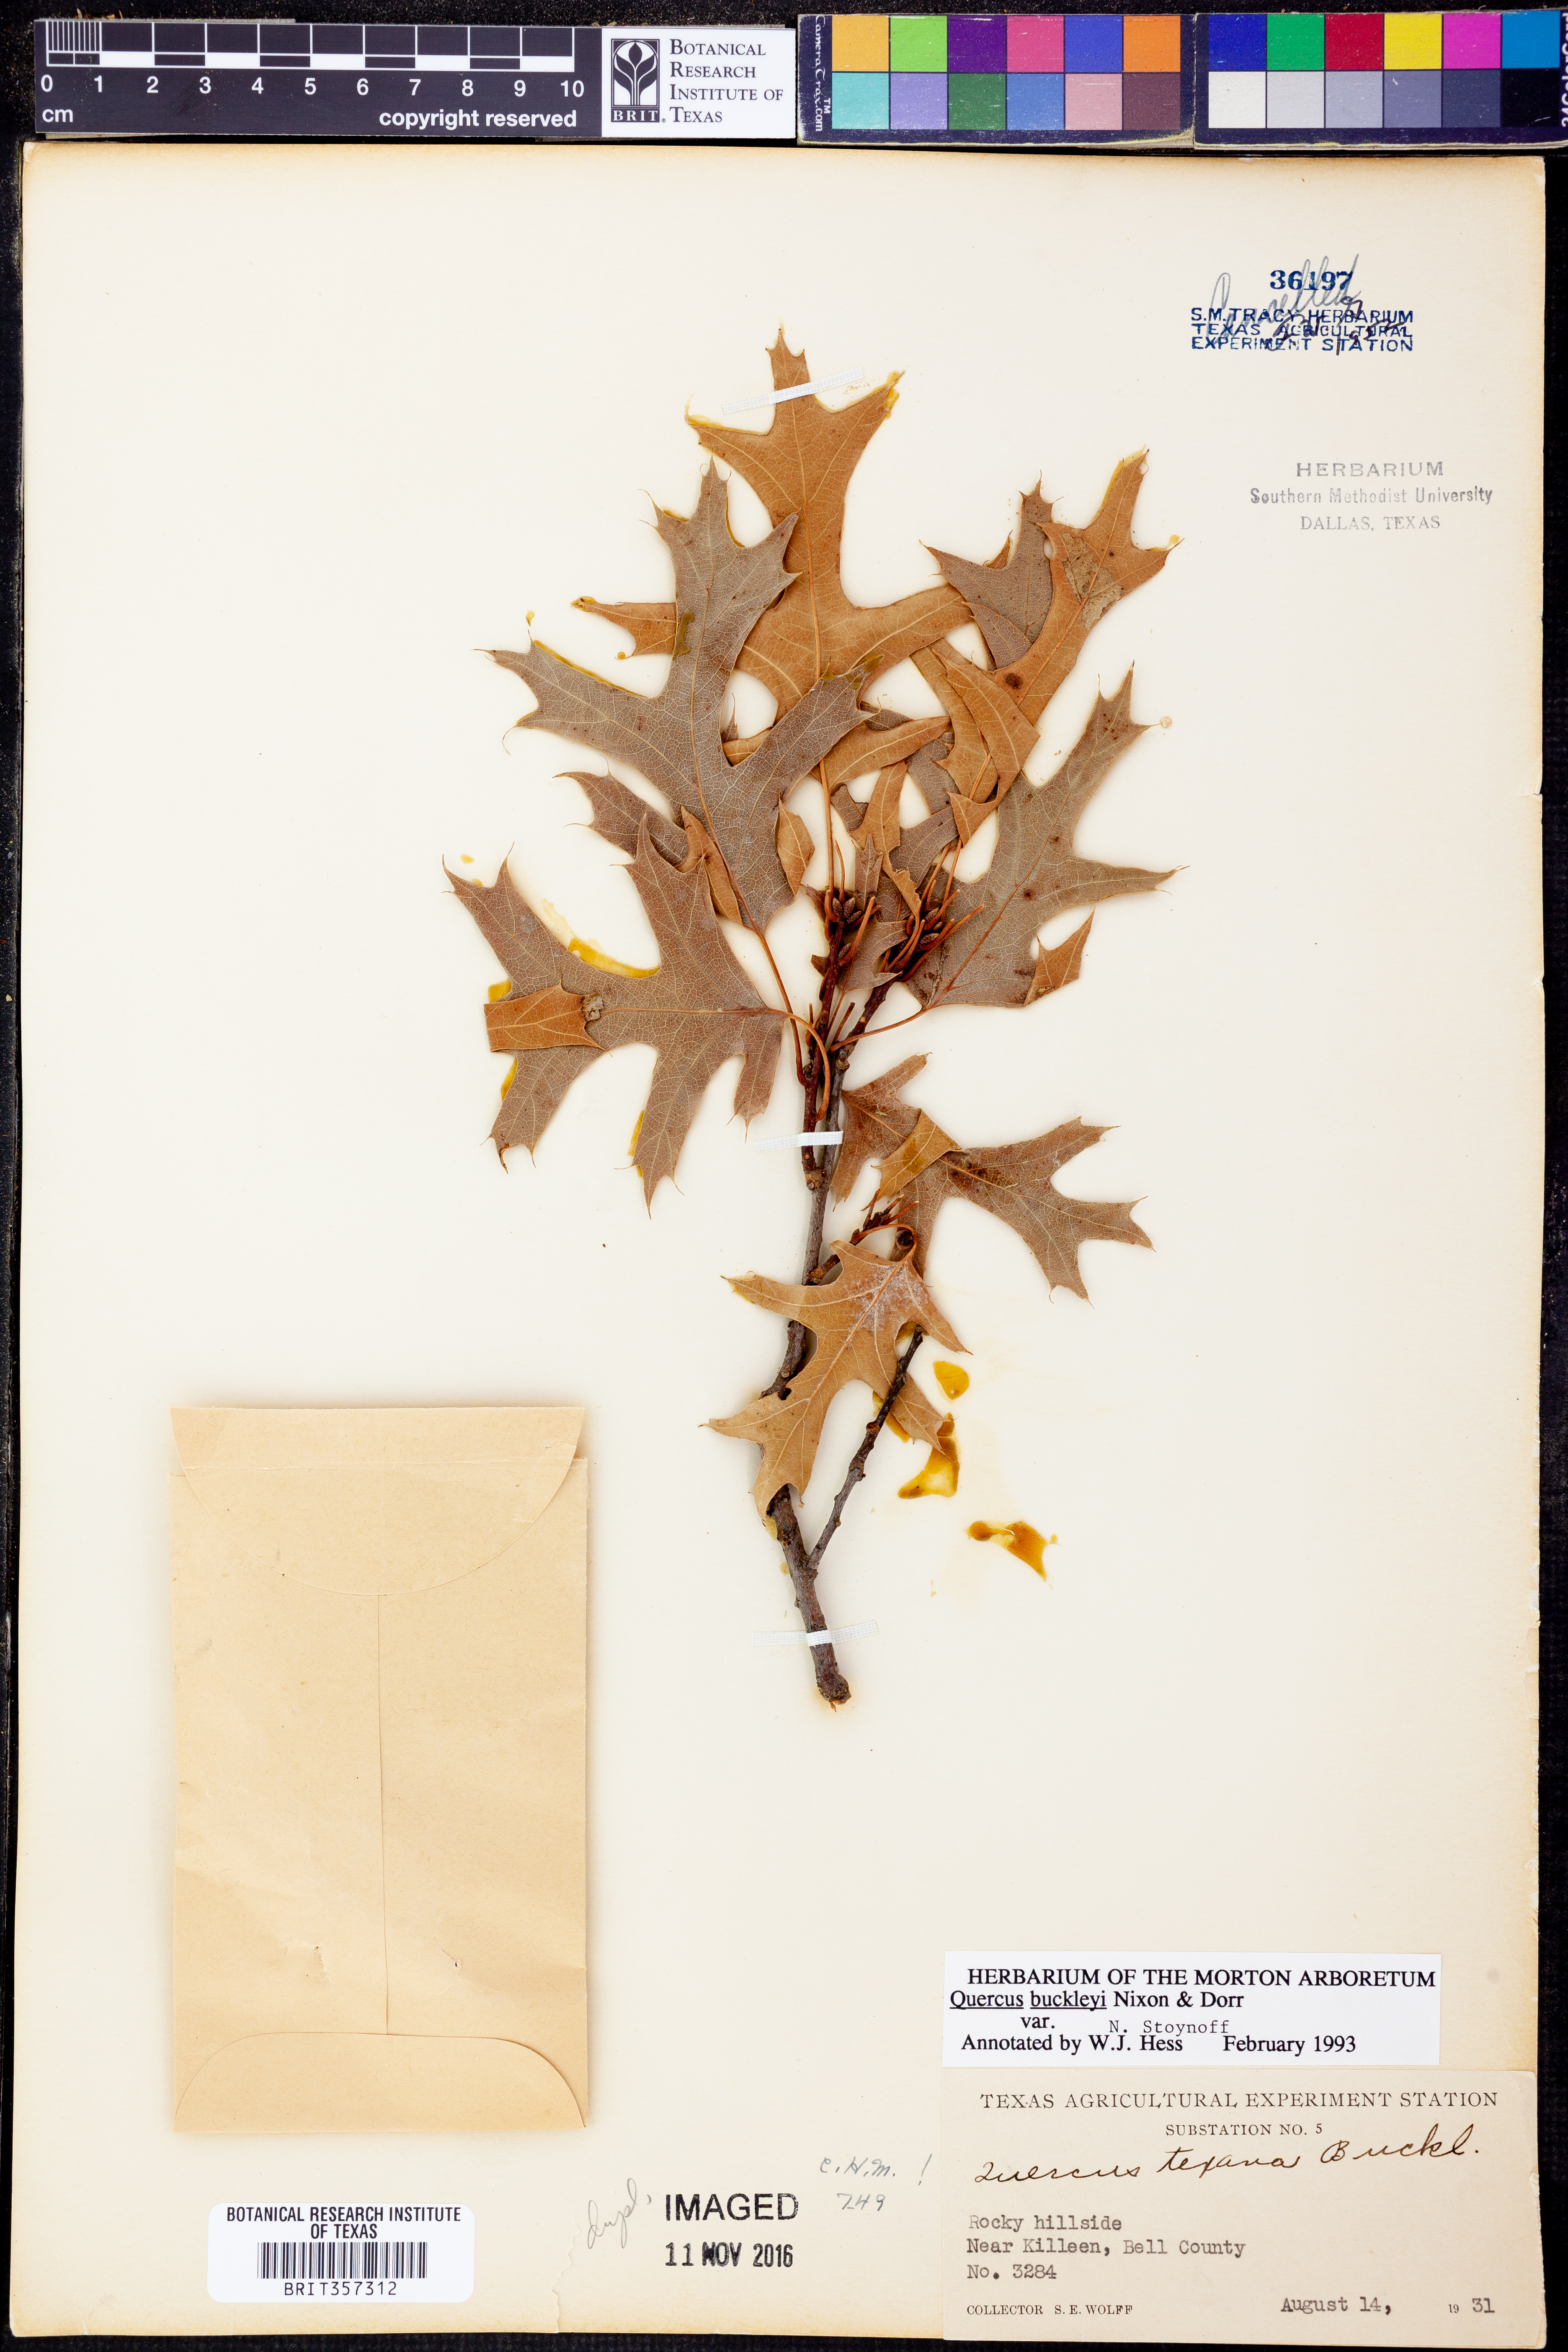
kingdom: Plantae
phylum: Tracheophyta
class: Magnoliopsida
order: Fagales
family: Fagaceae
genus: Quercus
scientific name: Quercus buckleyi
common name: Buckley oak
